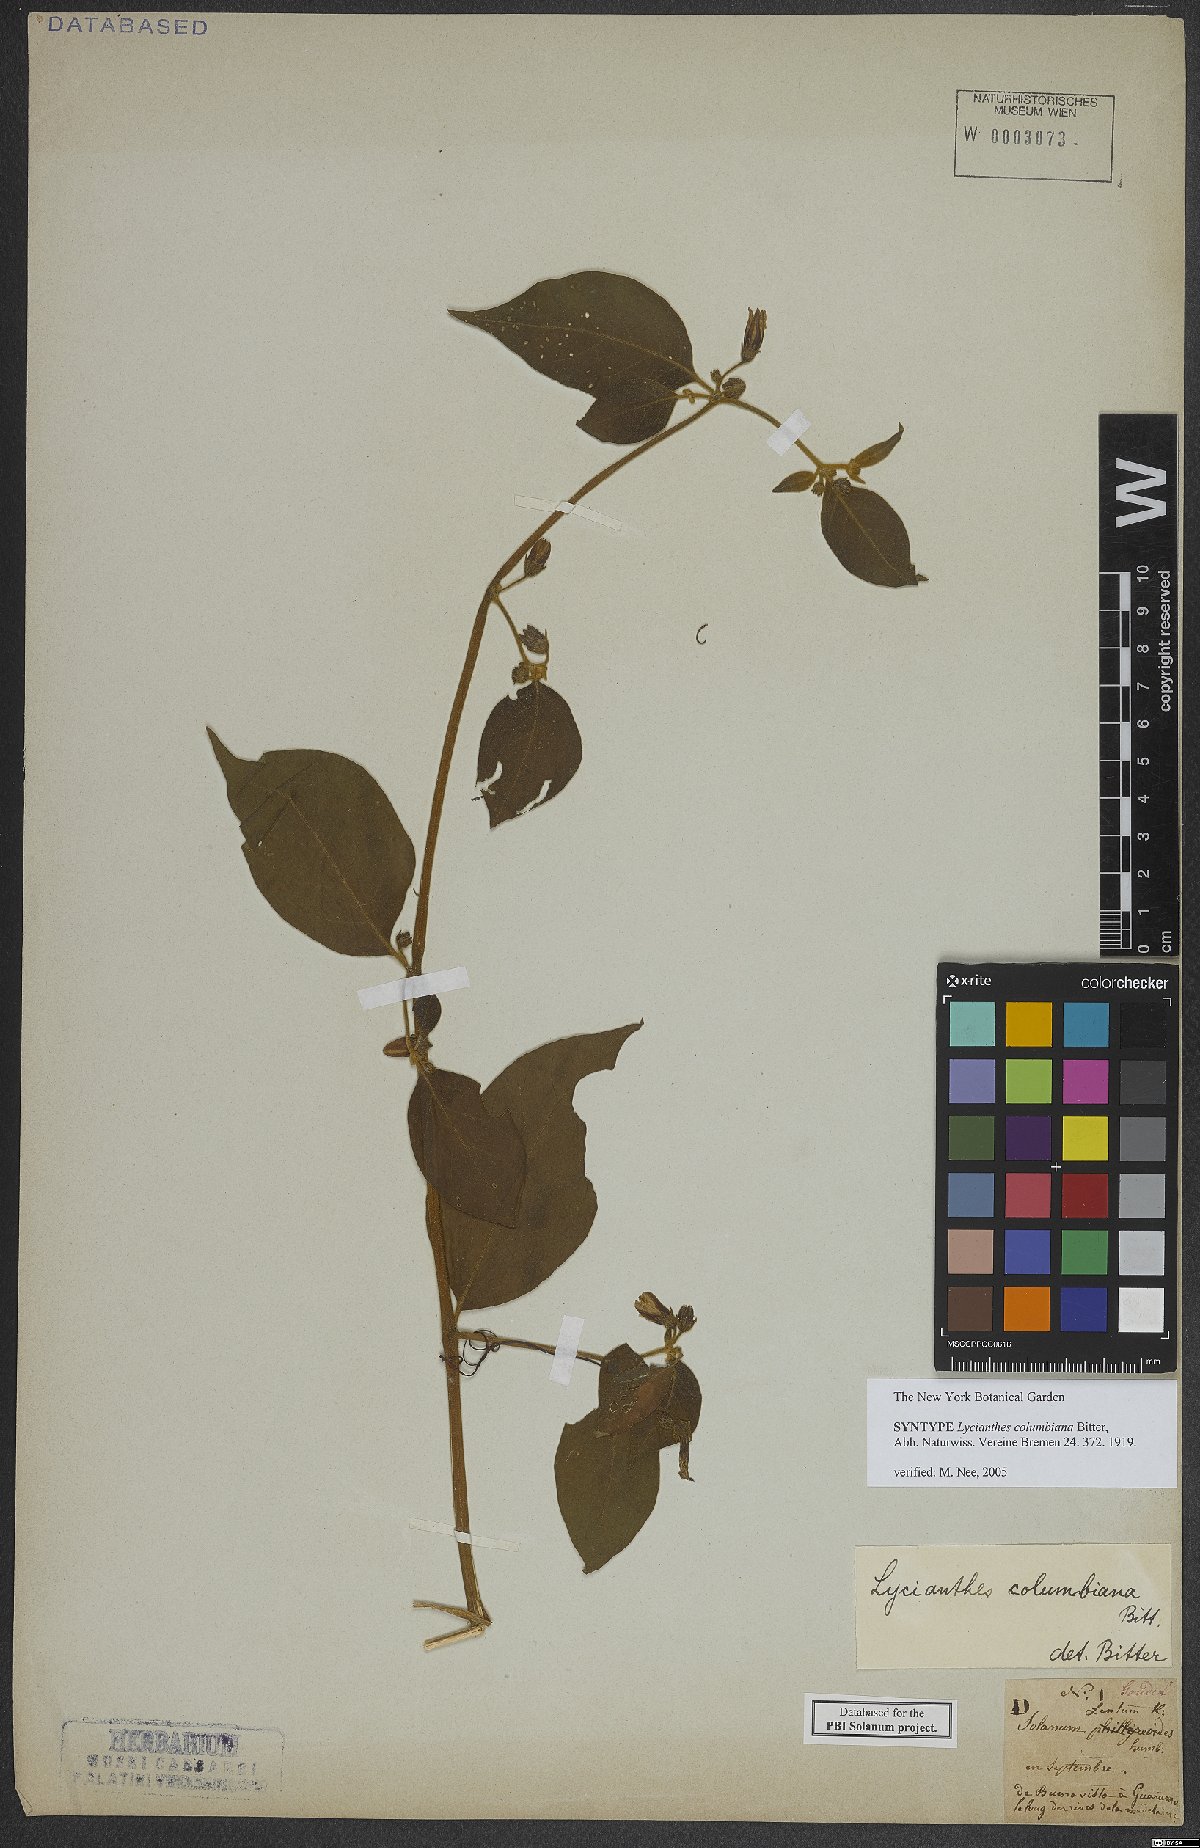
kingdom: Plantae
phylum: Tracheophyta
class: Magnoliopsida
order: Solanales
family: Solanaceae
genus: Lycianthes
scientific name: Lycianthes columbiana
